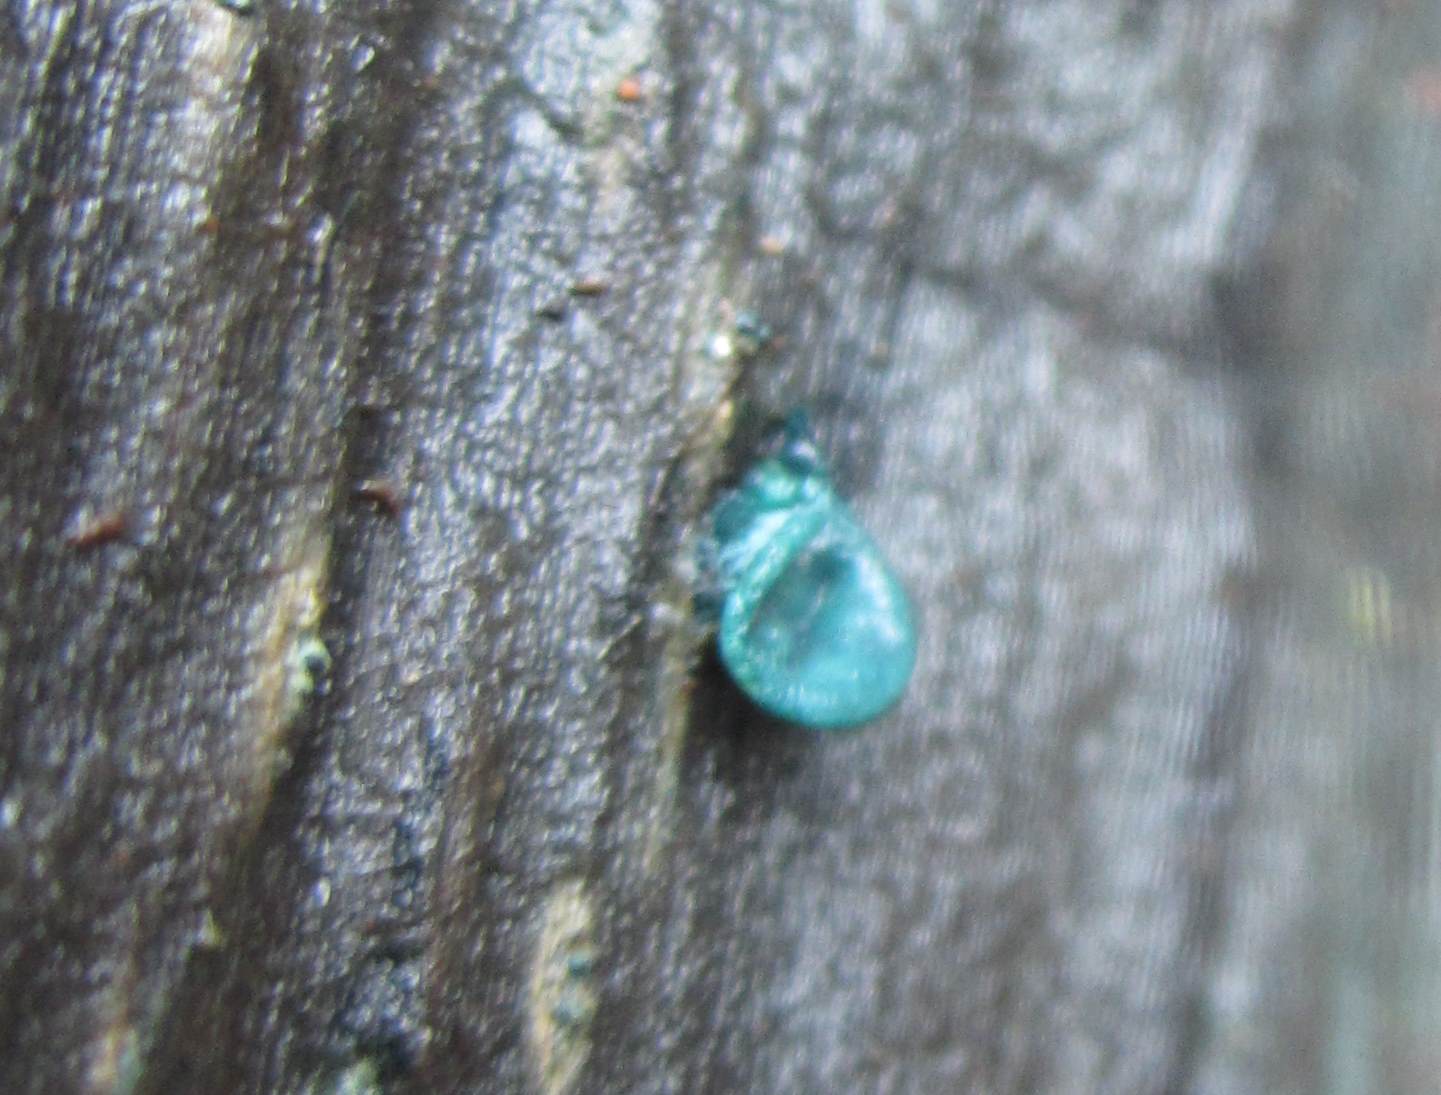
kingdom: Fungi
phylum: Ascomycota
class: Leotiomycetes
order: Helotiales
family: Chlorociboriaceae
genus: Chlorociboria
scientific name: Chlorociboria aeruginascens
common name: almindelig grønskive
